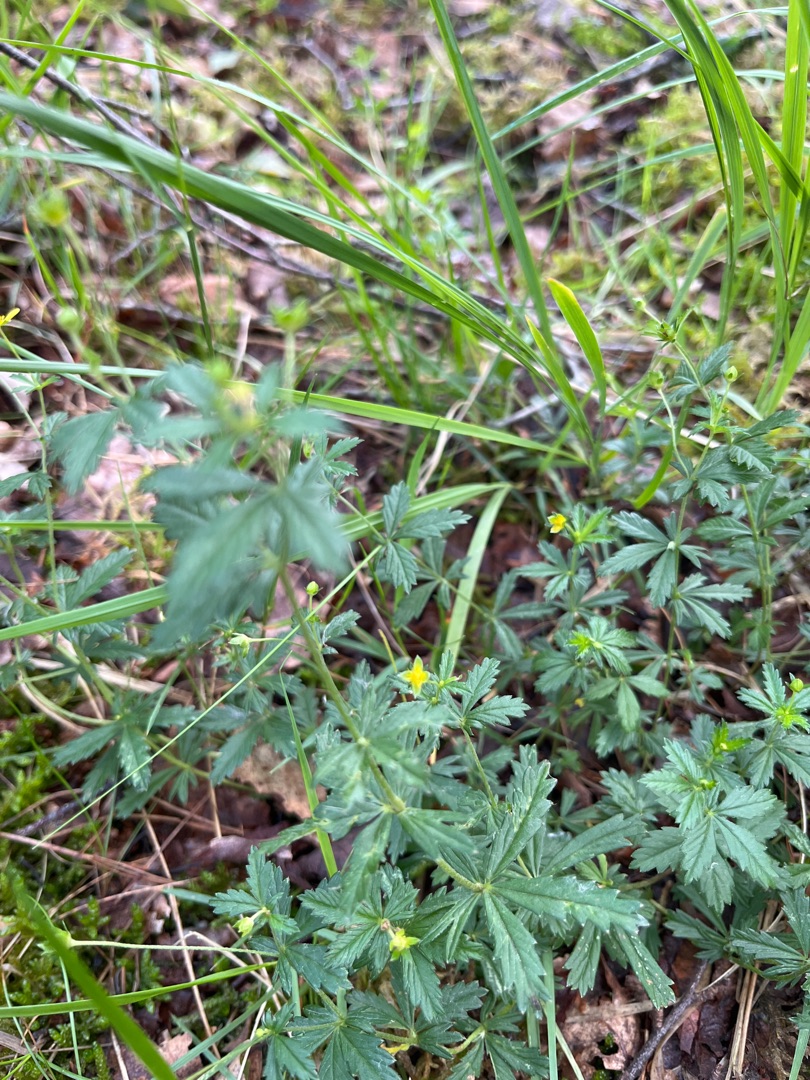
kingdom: Plantae
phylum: Tracheophyta
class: Magnoliopsida
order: Rosales
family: Rosaceae
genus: Potentilla
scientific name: Potentilla erecta
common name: Tormentil
